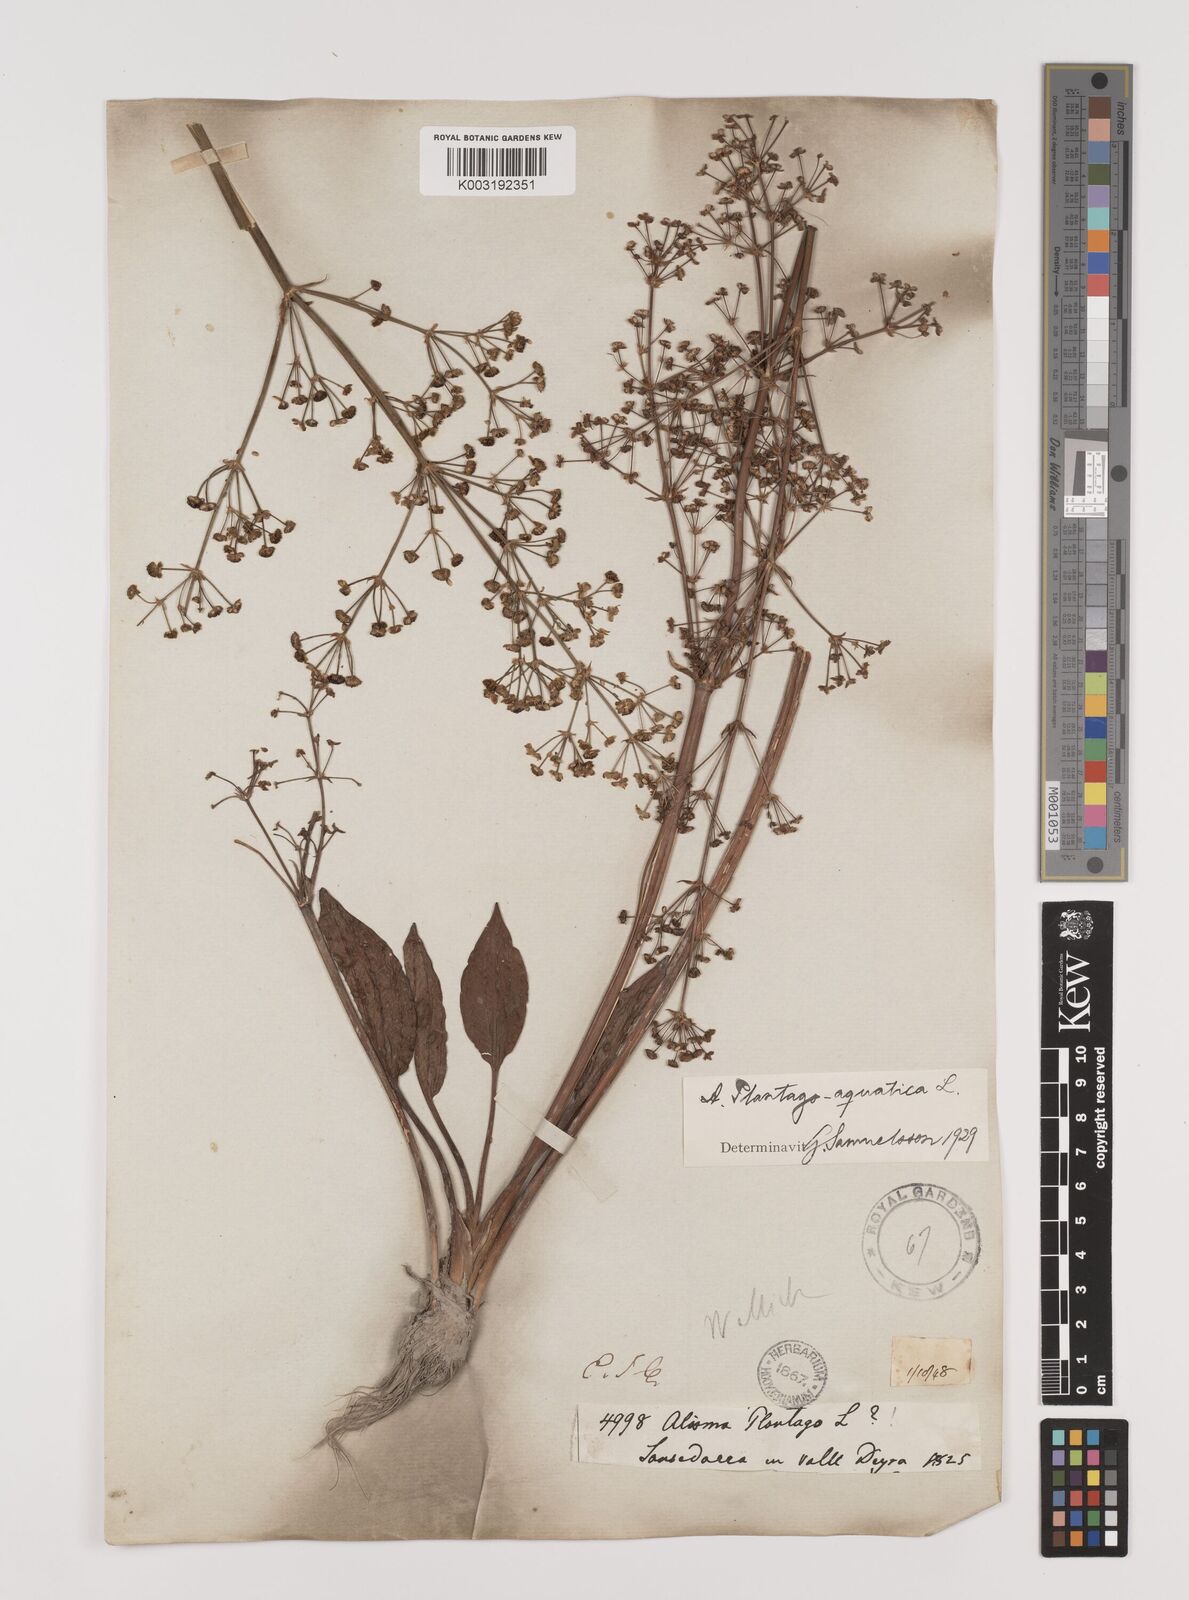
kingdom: Plantae
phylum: Tracheophyta
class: Liliopsida
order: Alismatales
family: Alismataceae
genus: Alisma
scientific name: Alisma plantago-aquatica
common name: Water-plantain
